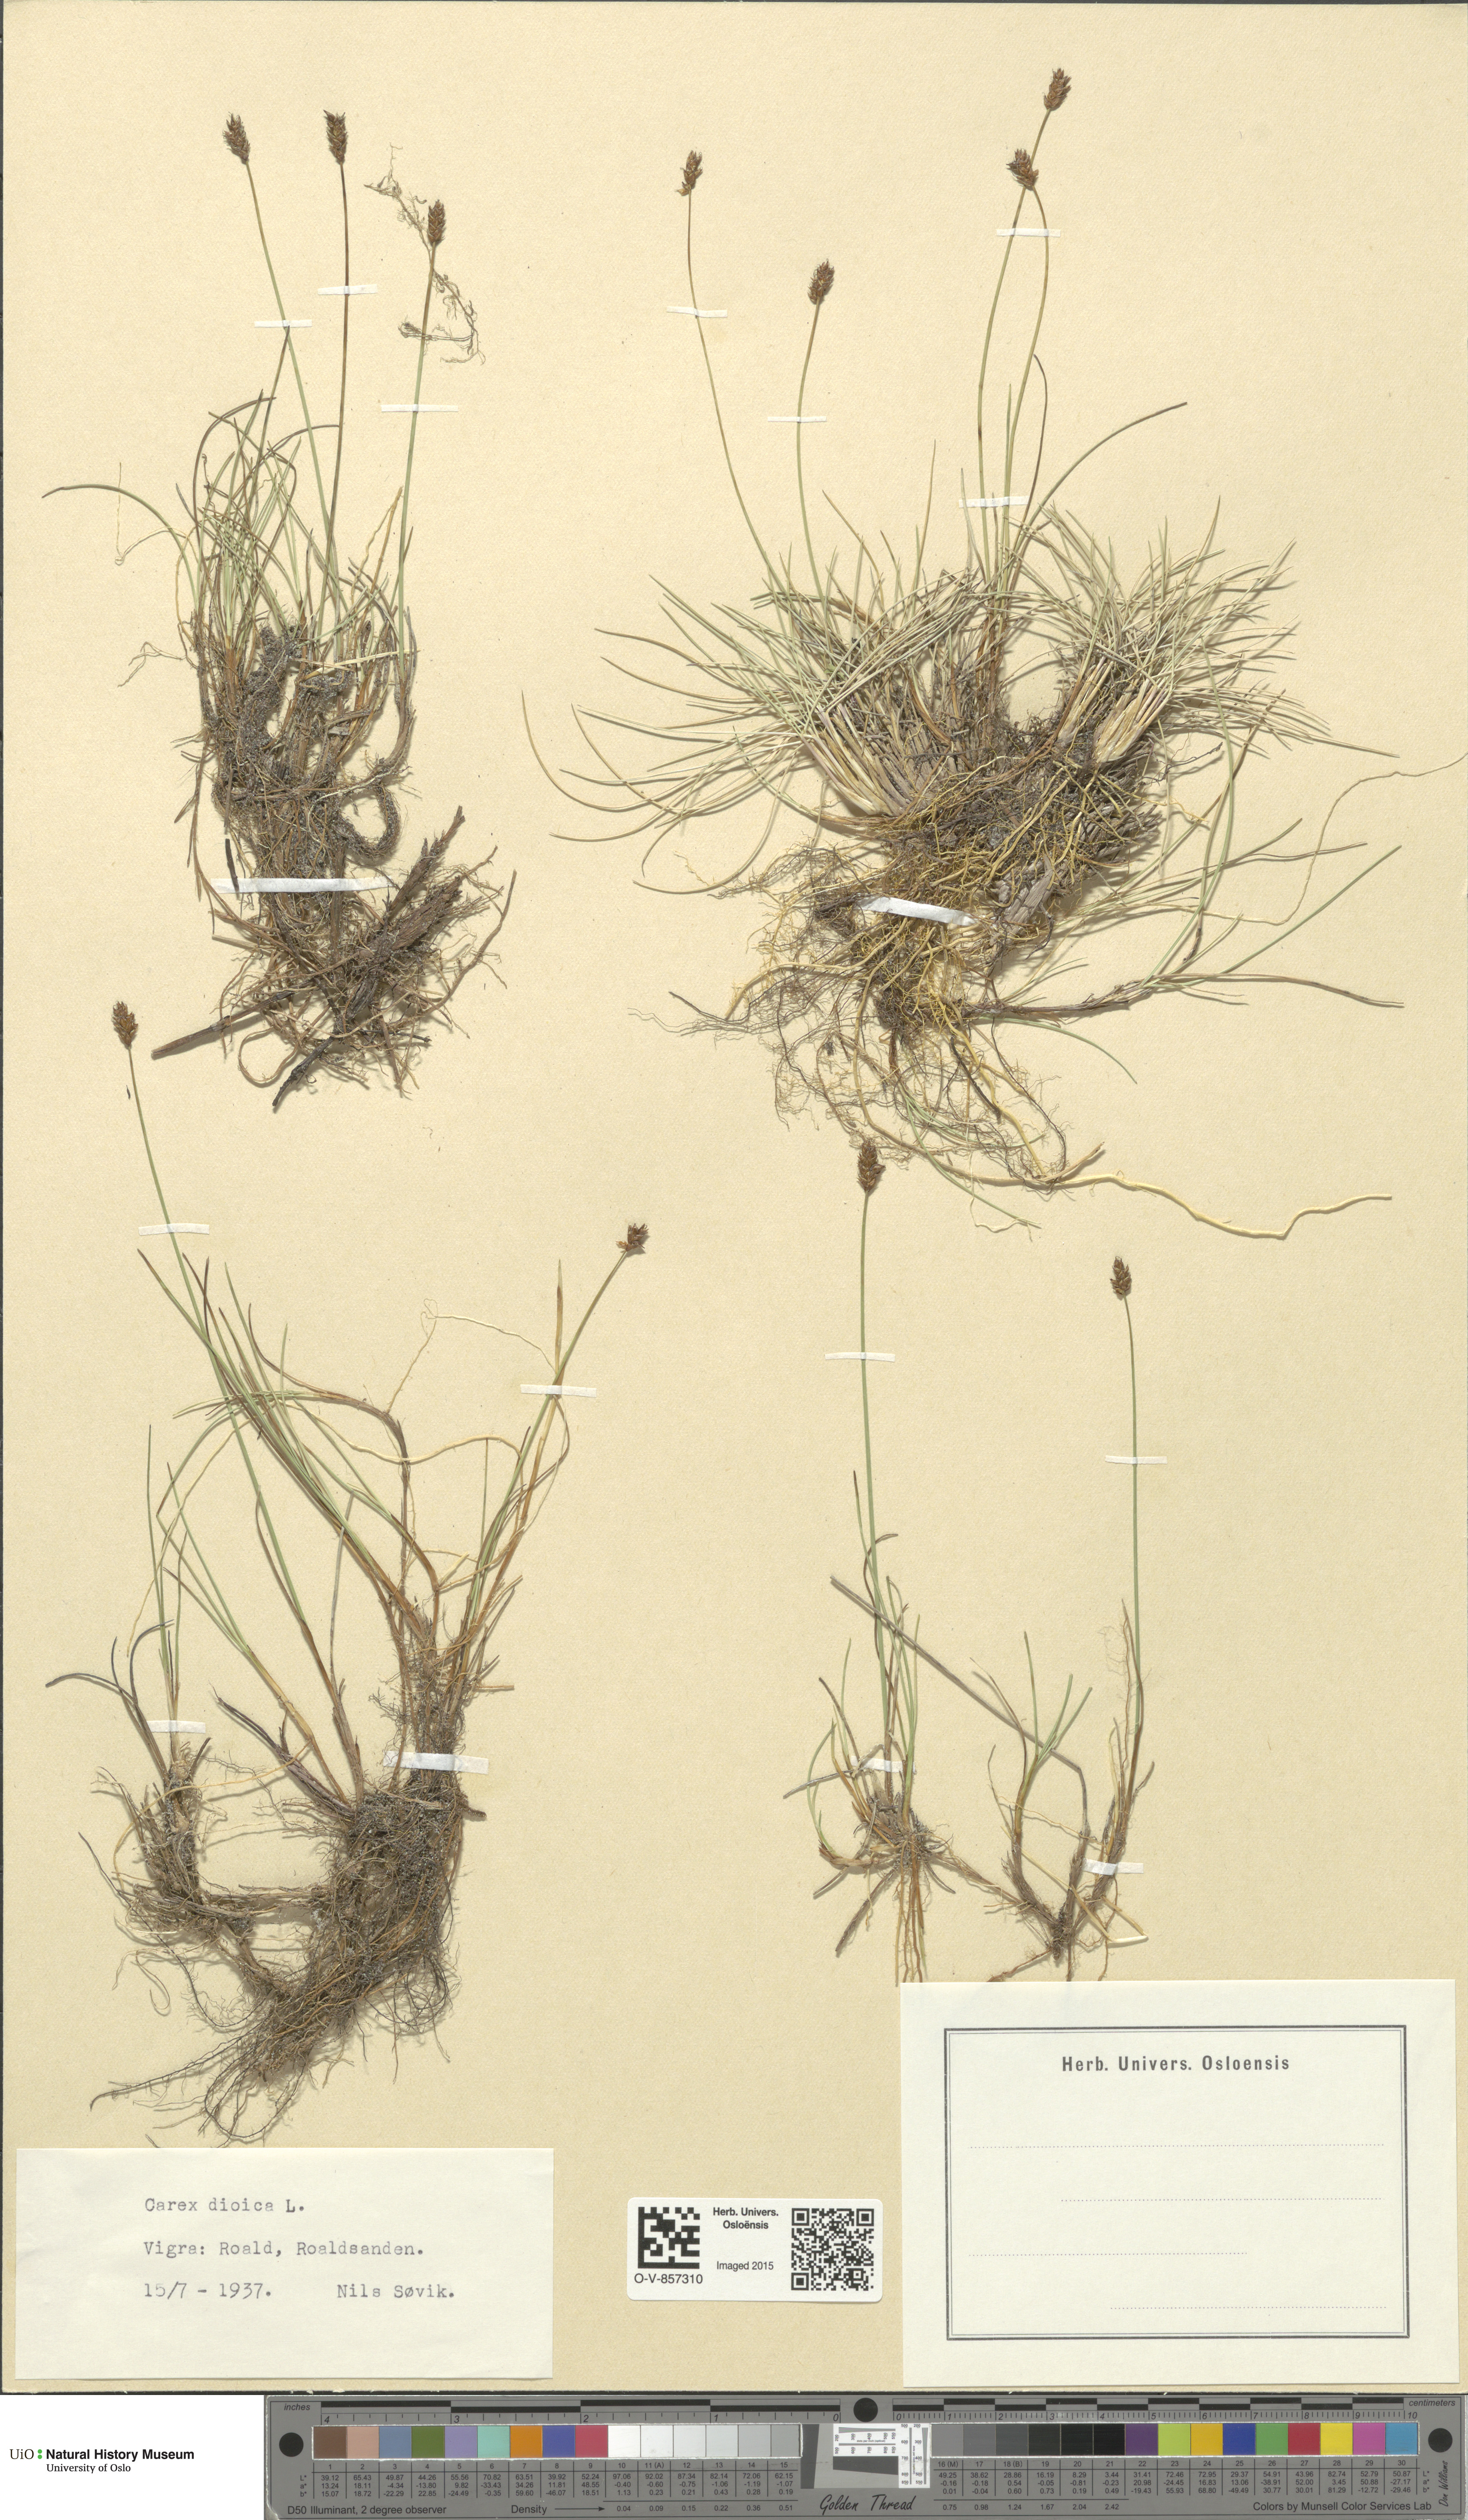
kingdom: Plantae
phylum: Tracheophyta
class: Liliopsida
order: Poales
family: Cyperaceae
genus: Carex
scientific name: Carex dioica
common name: Dioecious sedge
